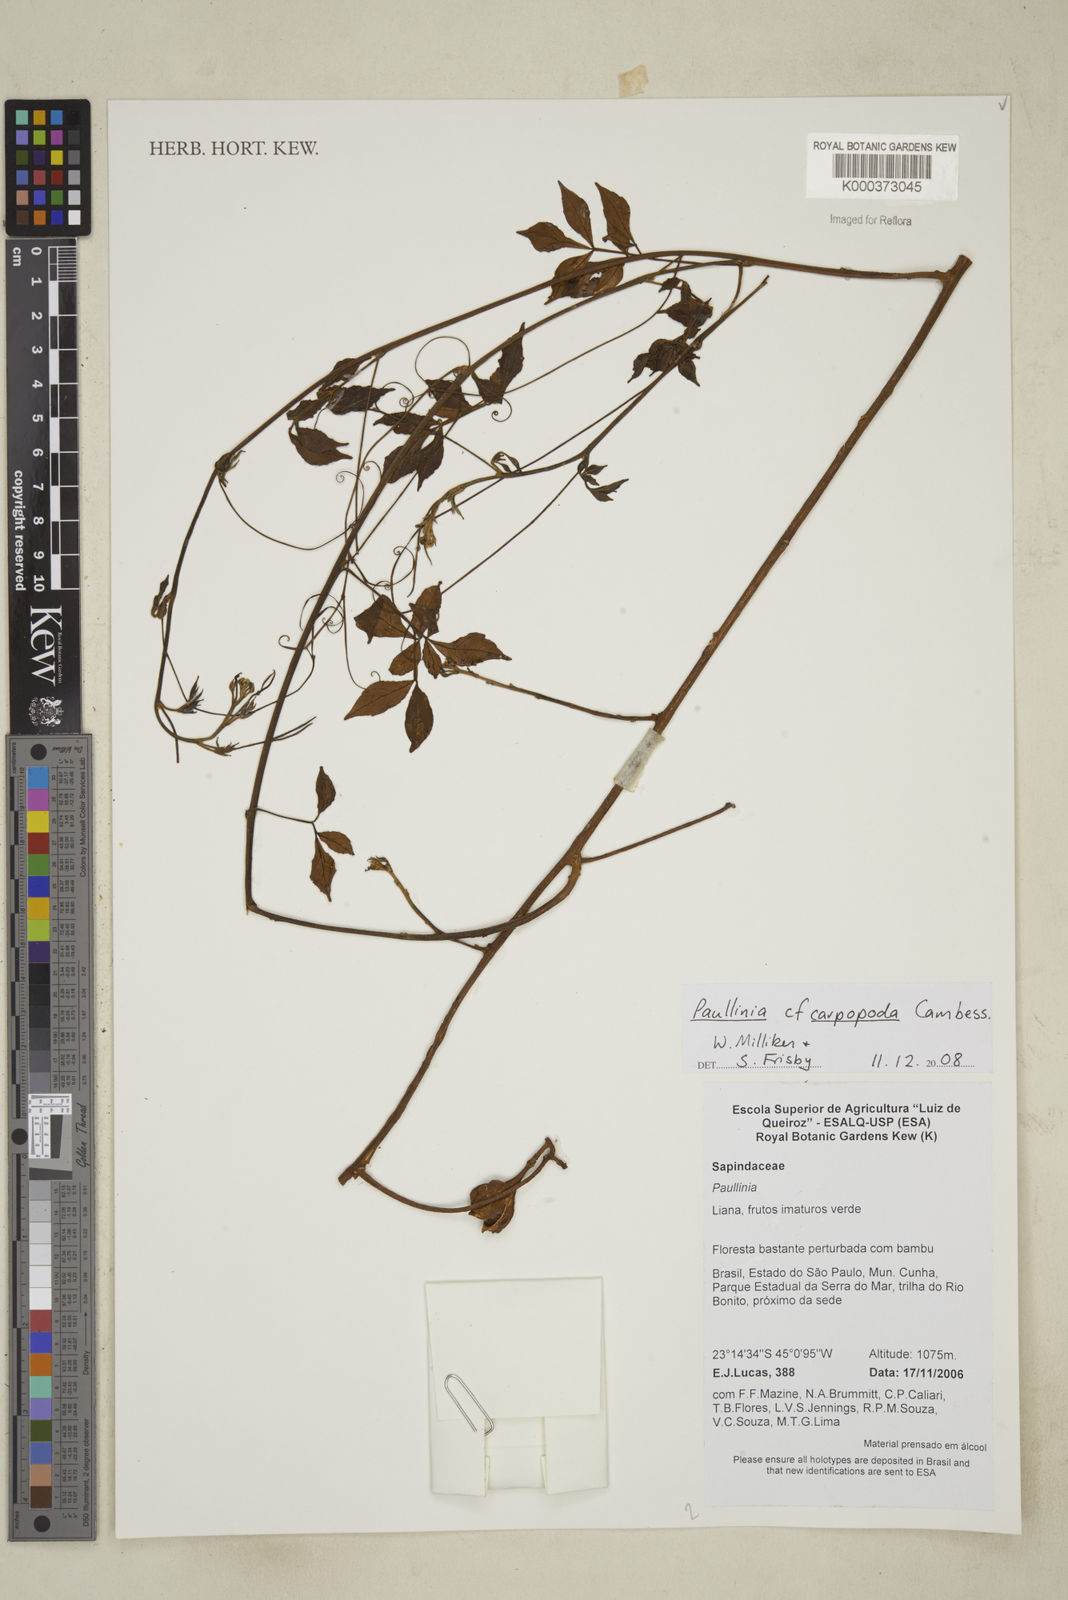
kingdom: Plantae
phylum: Tracheophyta
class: Magnoliopsida
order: Sapindales
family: Sapindaceae
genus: Paullinia
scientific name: Paullinia
